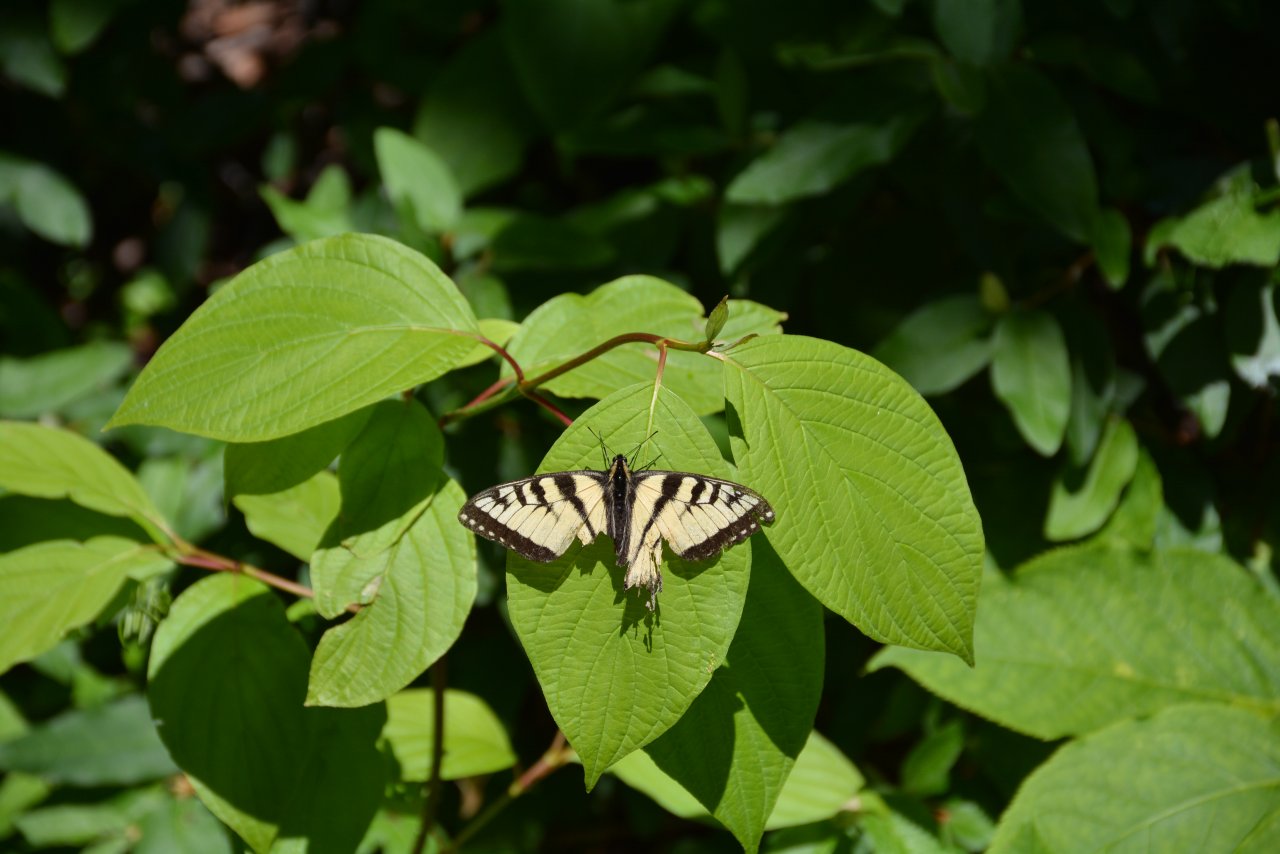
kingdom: Animalia
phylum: Arthropoda
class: Insecta
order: Lepidoptera
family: Papilionidae
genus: Pterourus
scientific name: Pterourus canadensis
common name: Canadian Tiger Swallowtail
